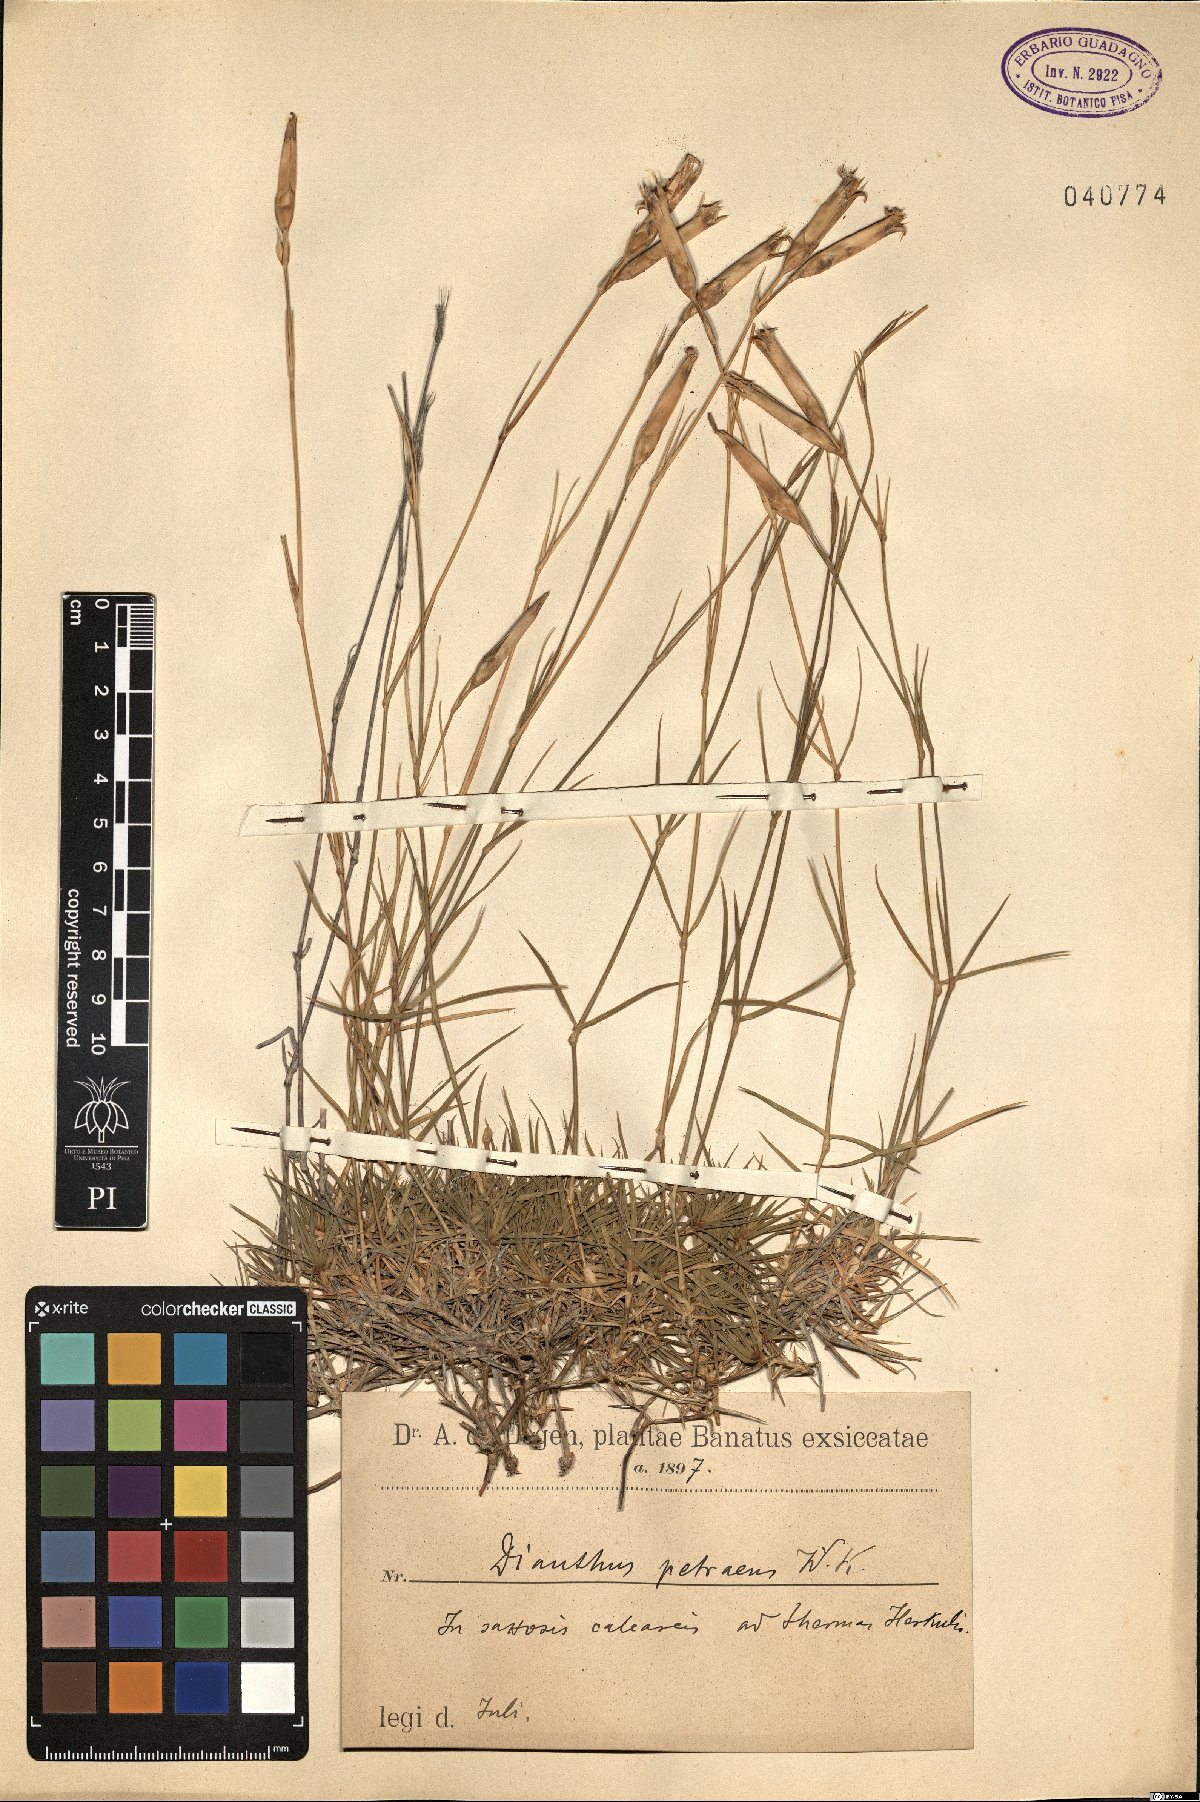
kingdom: Plantae
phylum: Tracheophyta
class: Magnoliopsida
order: Caryophyllales
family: Caryophyllaceae
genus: Dianthus
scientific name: Dianthus petraeus
